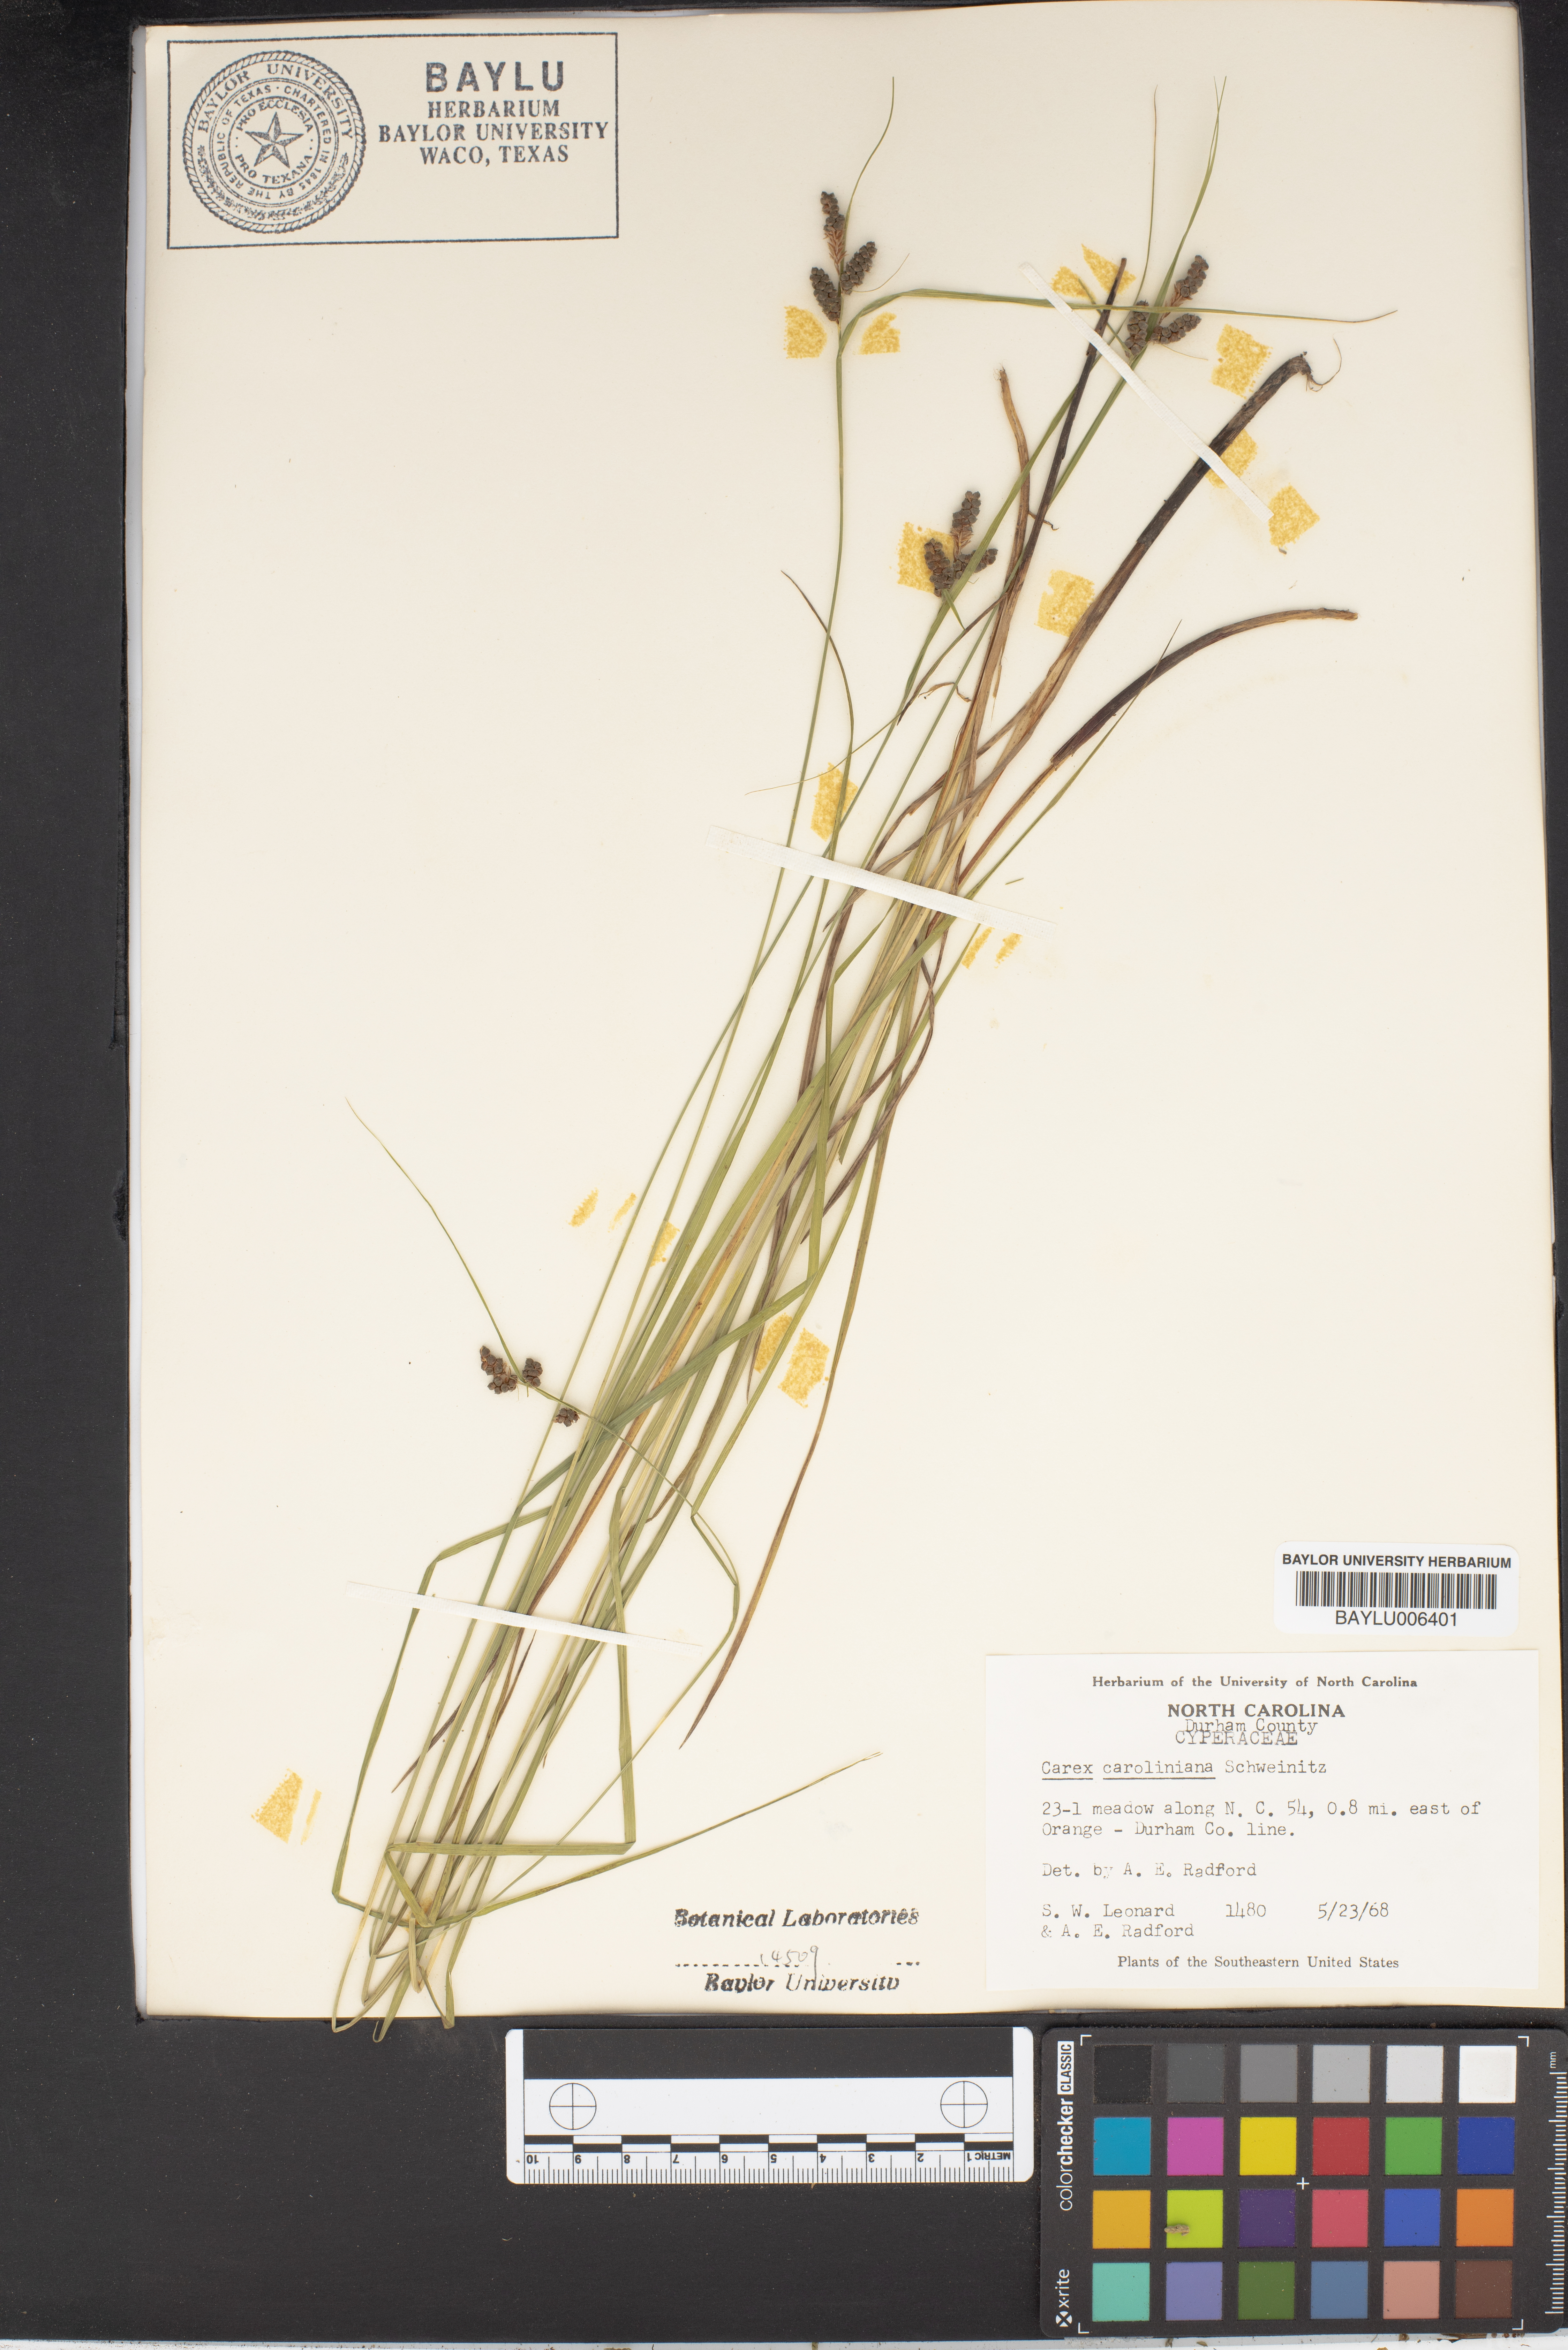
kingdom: Plantae
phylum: Tracheophyta
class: Liliopsida
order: Poales
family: Cyperaceae
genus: Carex
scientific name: Carex caroliniana
